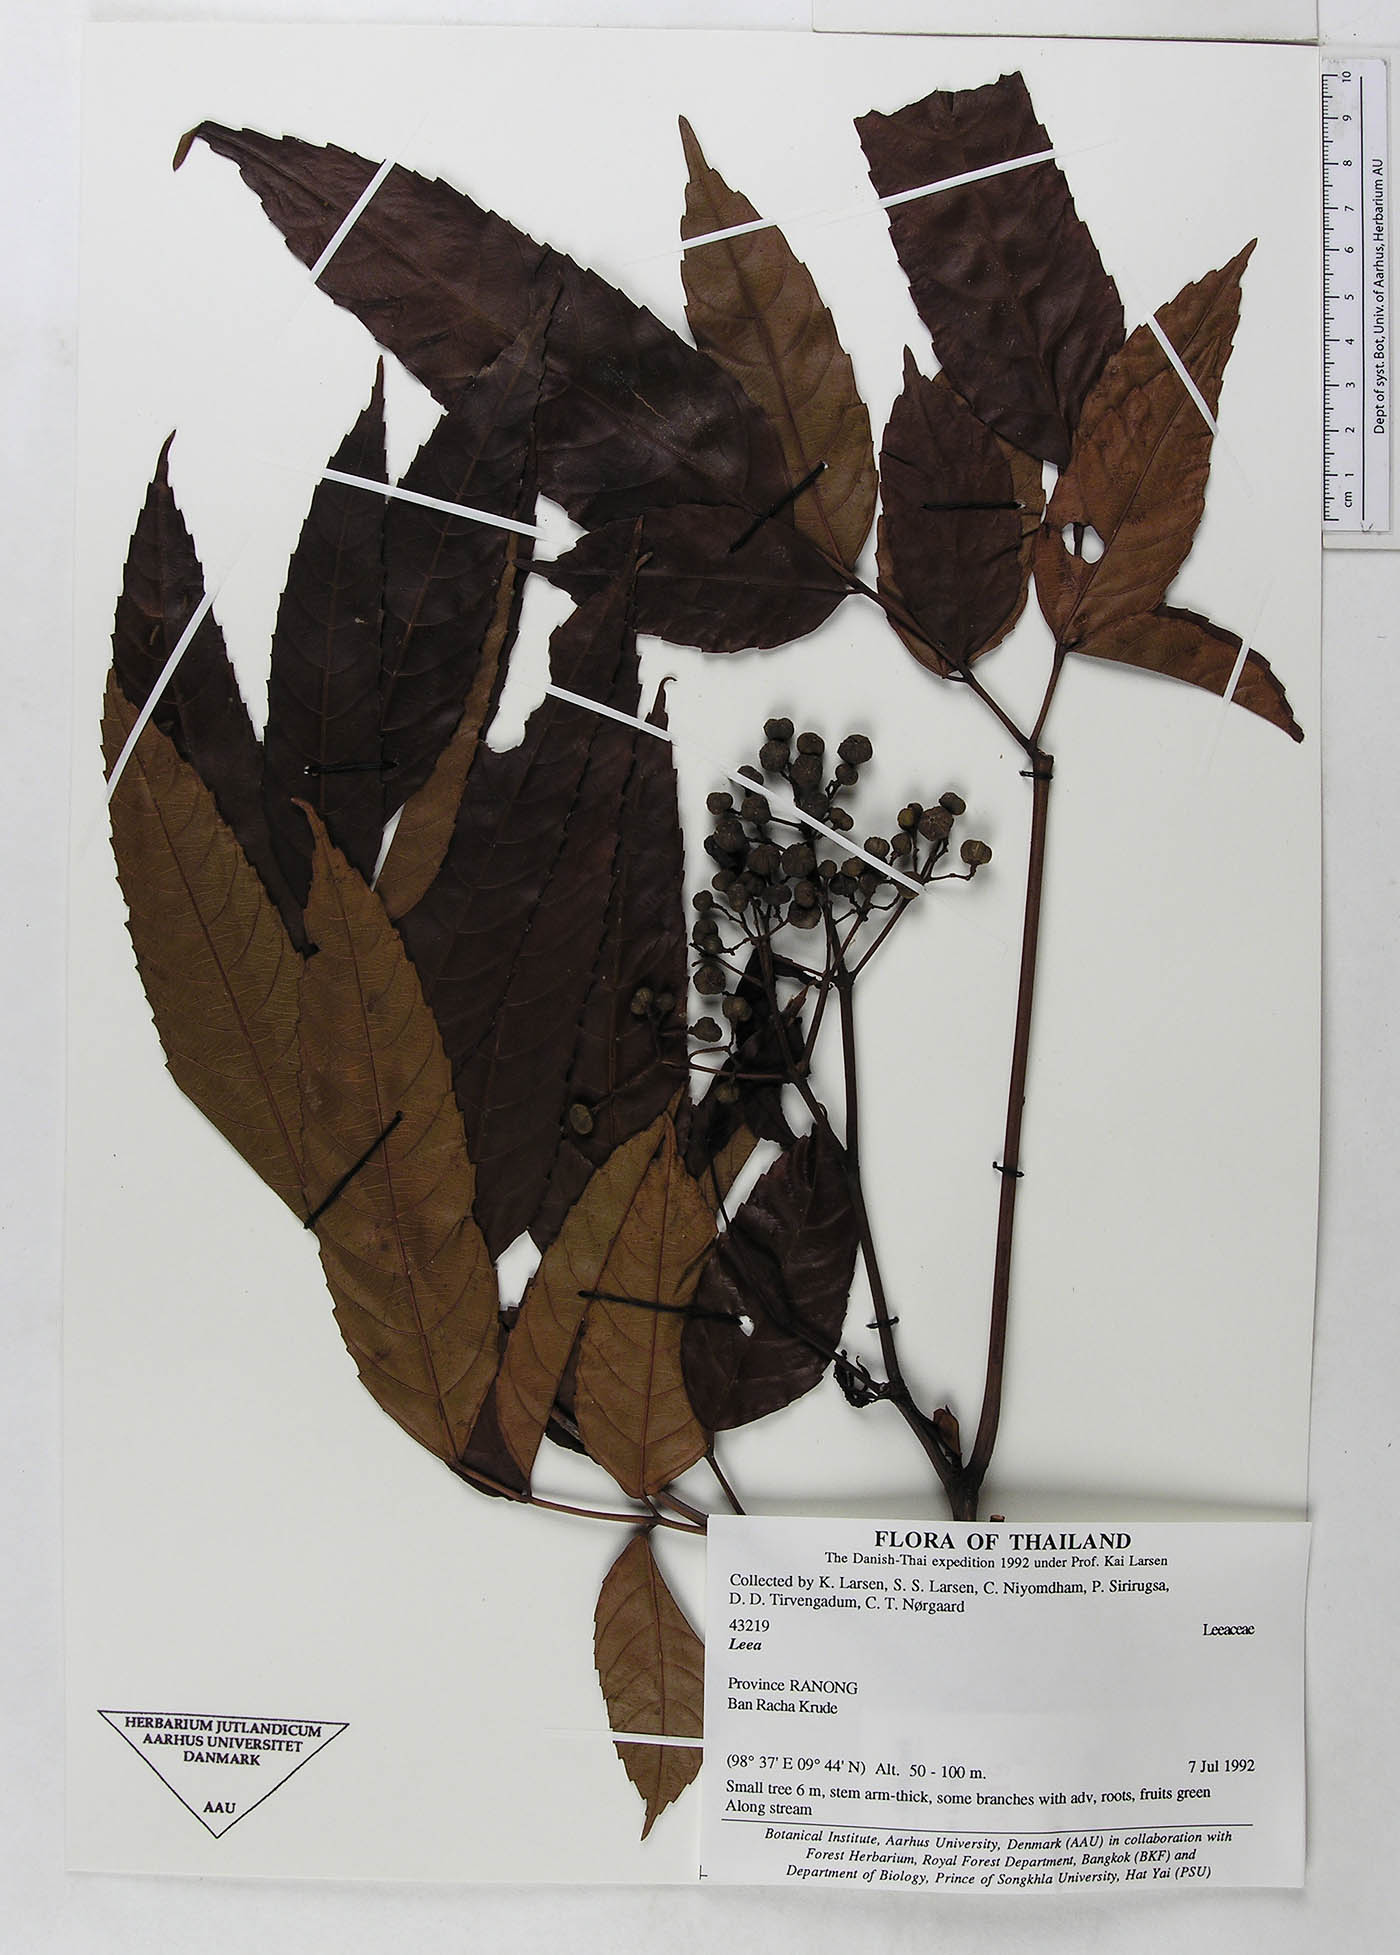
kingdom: Plantae
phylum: Tracheophyta
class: Magnoliopsida
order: Vitales
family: Vitaceae
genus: Leea
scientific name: Leea indica
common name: Bandicoot-berry
